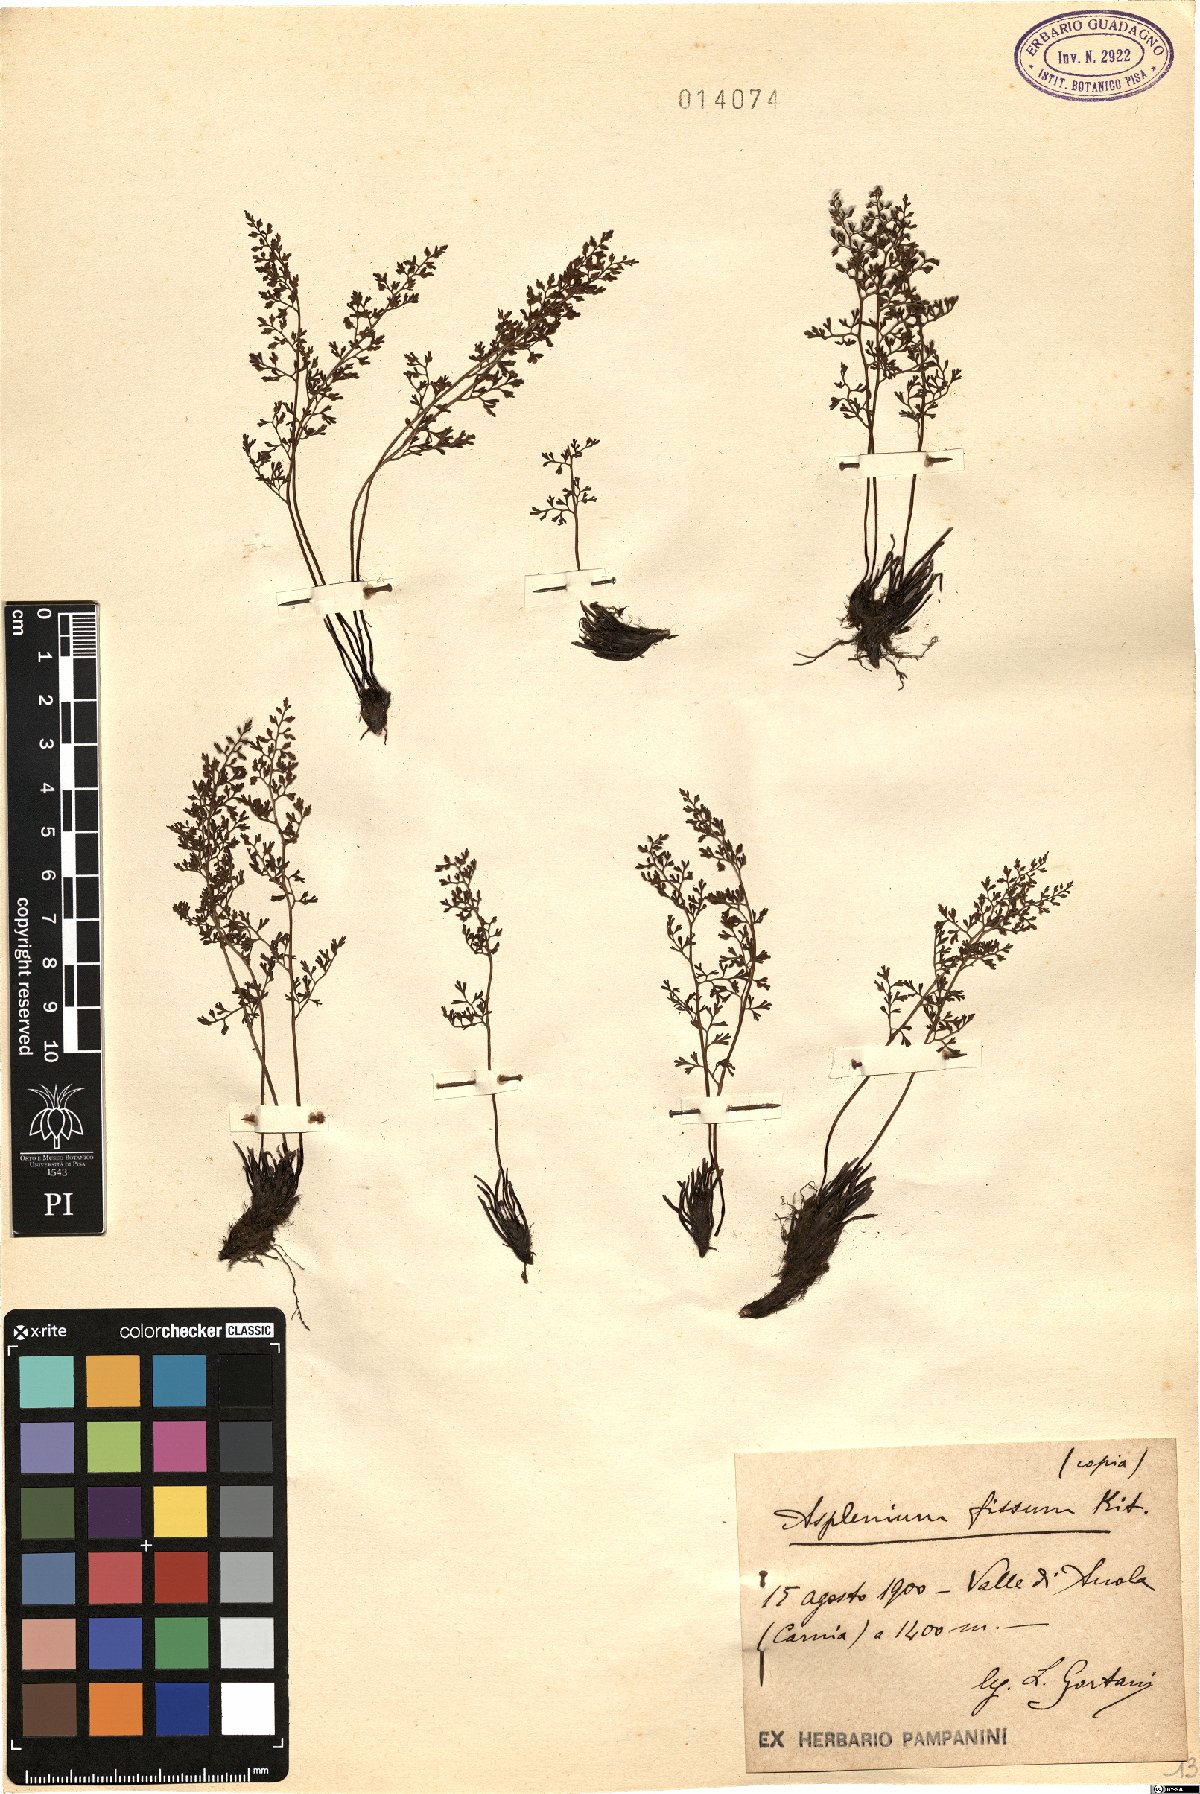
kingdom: Plantae
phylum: Tracheophyta
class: Polypodiopsida
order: Polypodiales
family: Aspleniaceae
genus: Asplenium
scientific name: Asplenium fissum
